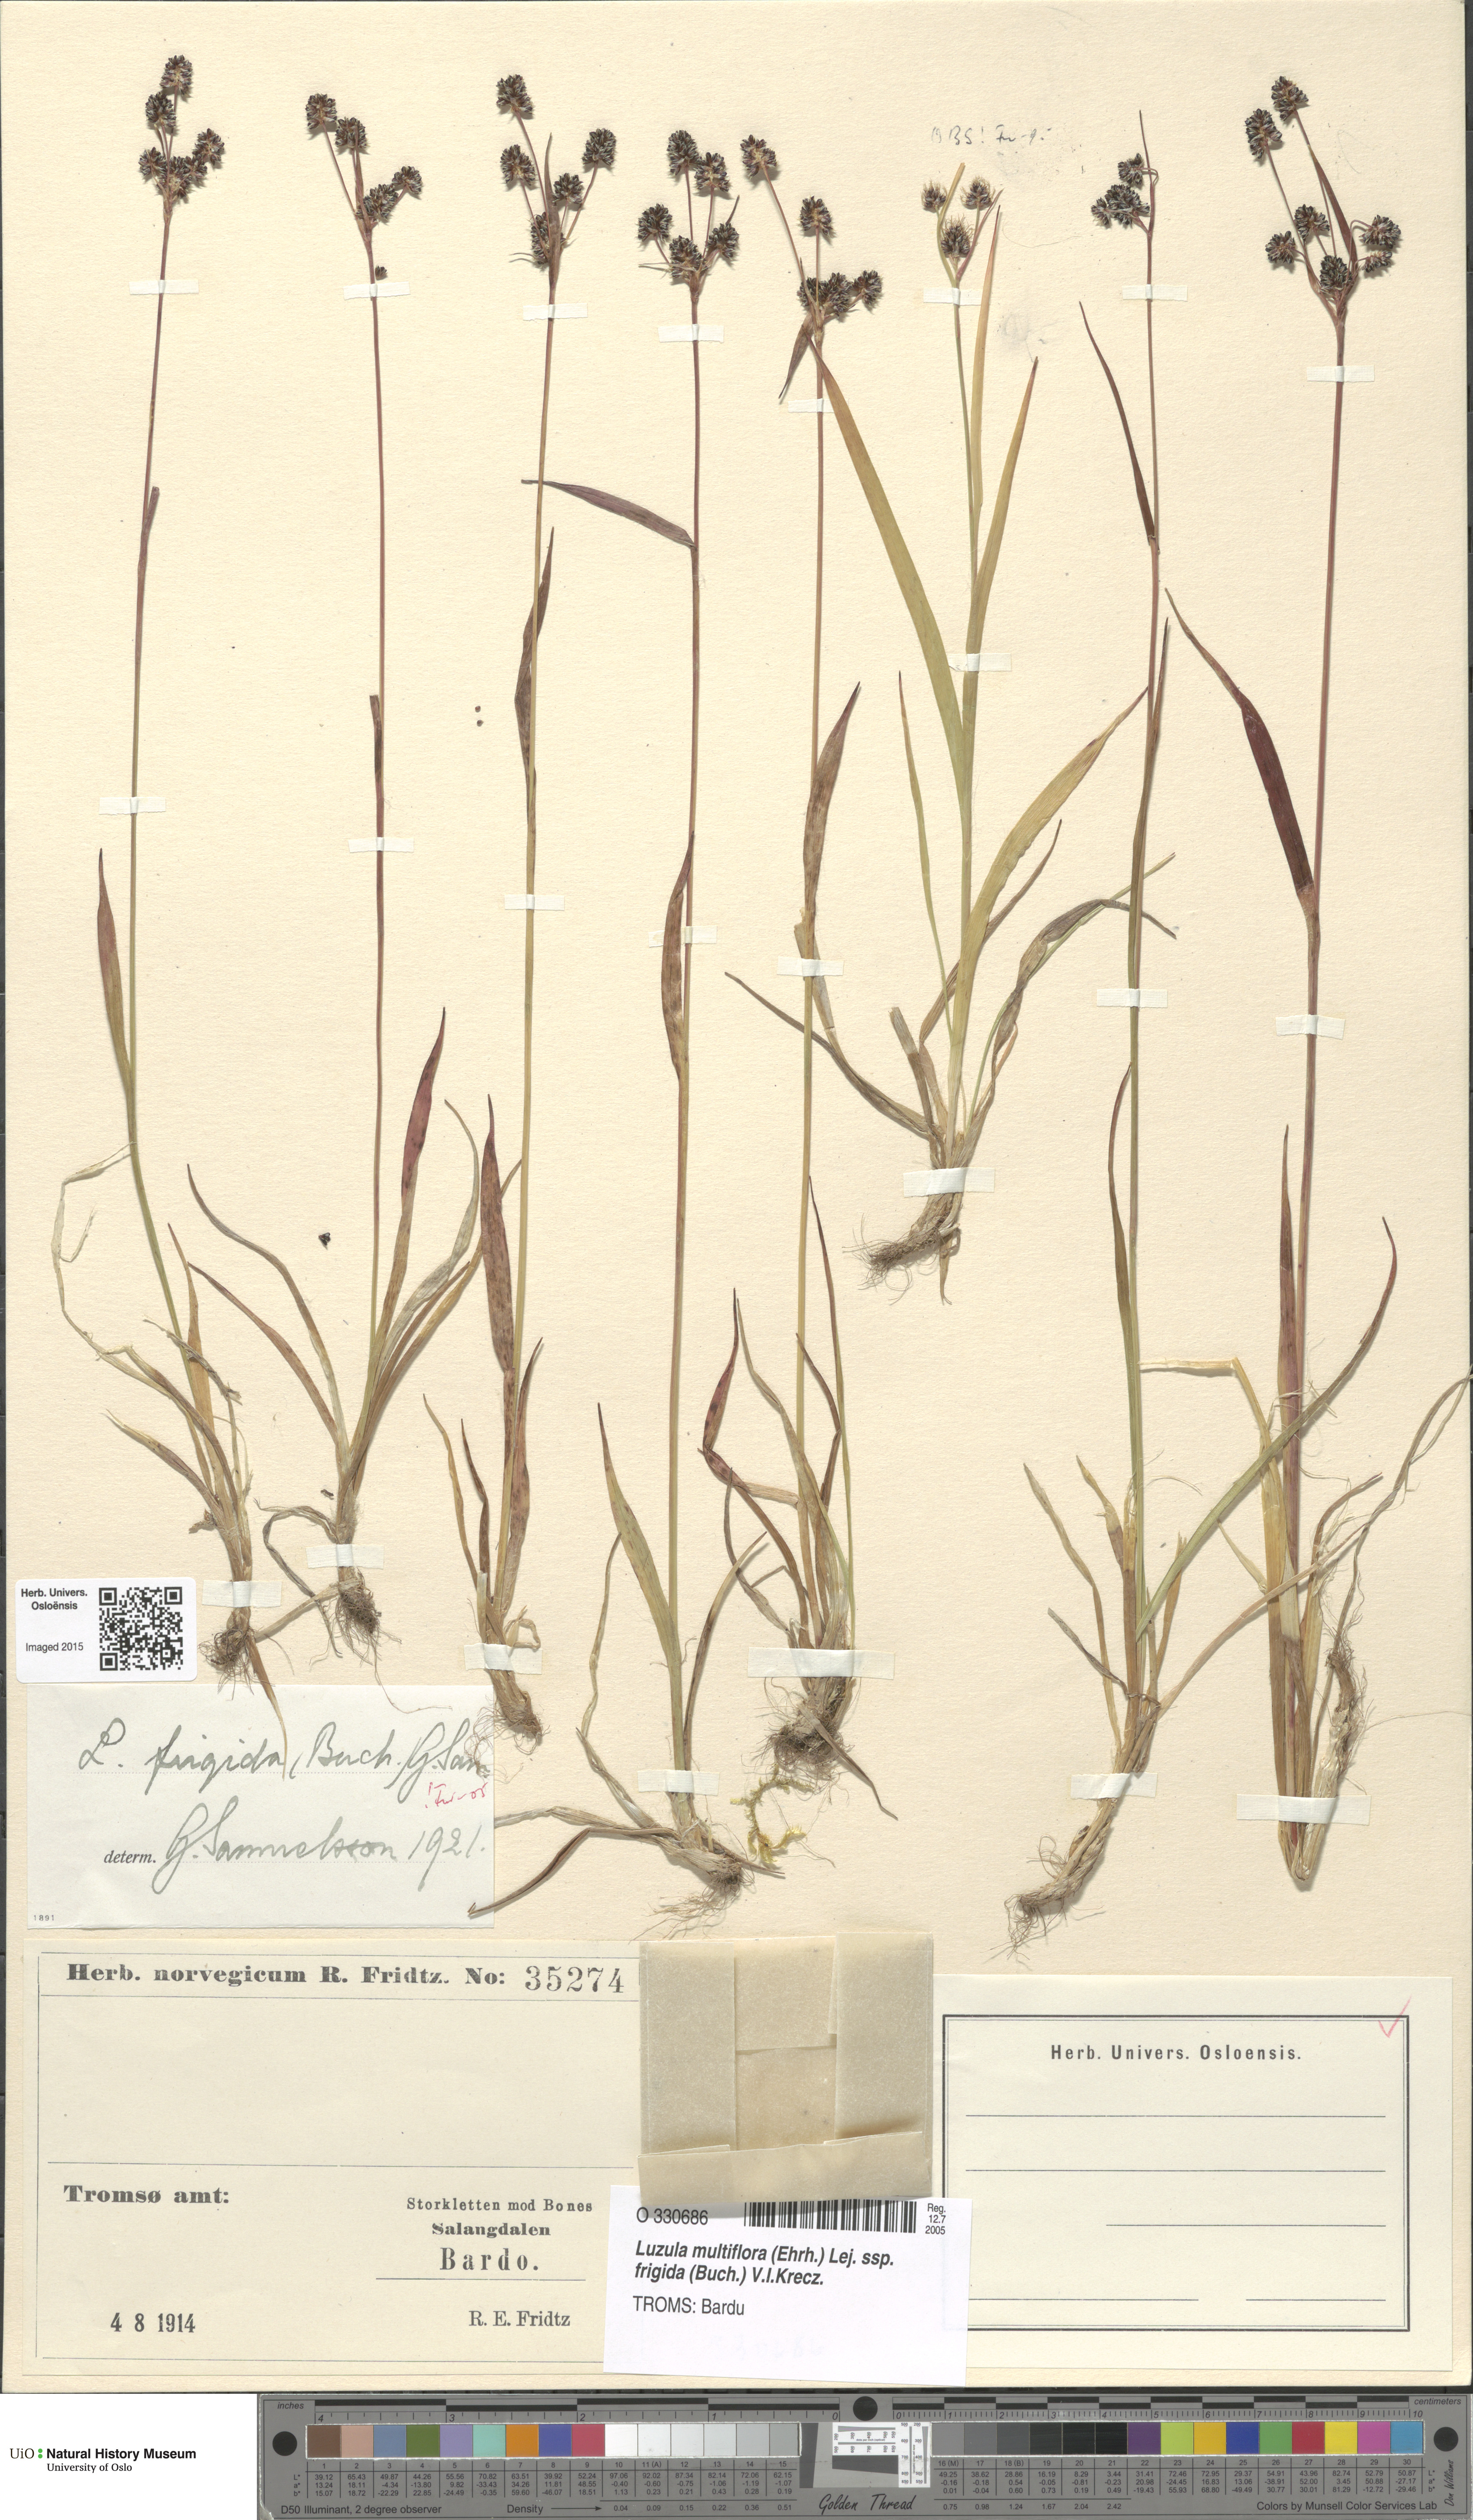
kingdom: Plantae
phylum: Tracheophyta
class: Liliopsida
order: Poales
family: Juncaceae
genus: Luzula
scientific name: Luzula multiflora
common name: Heath wood-rush
